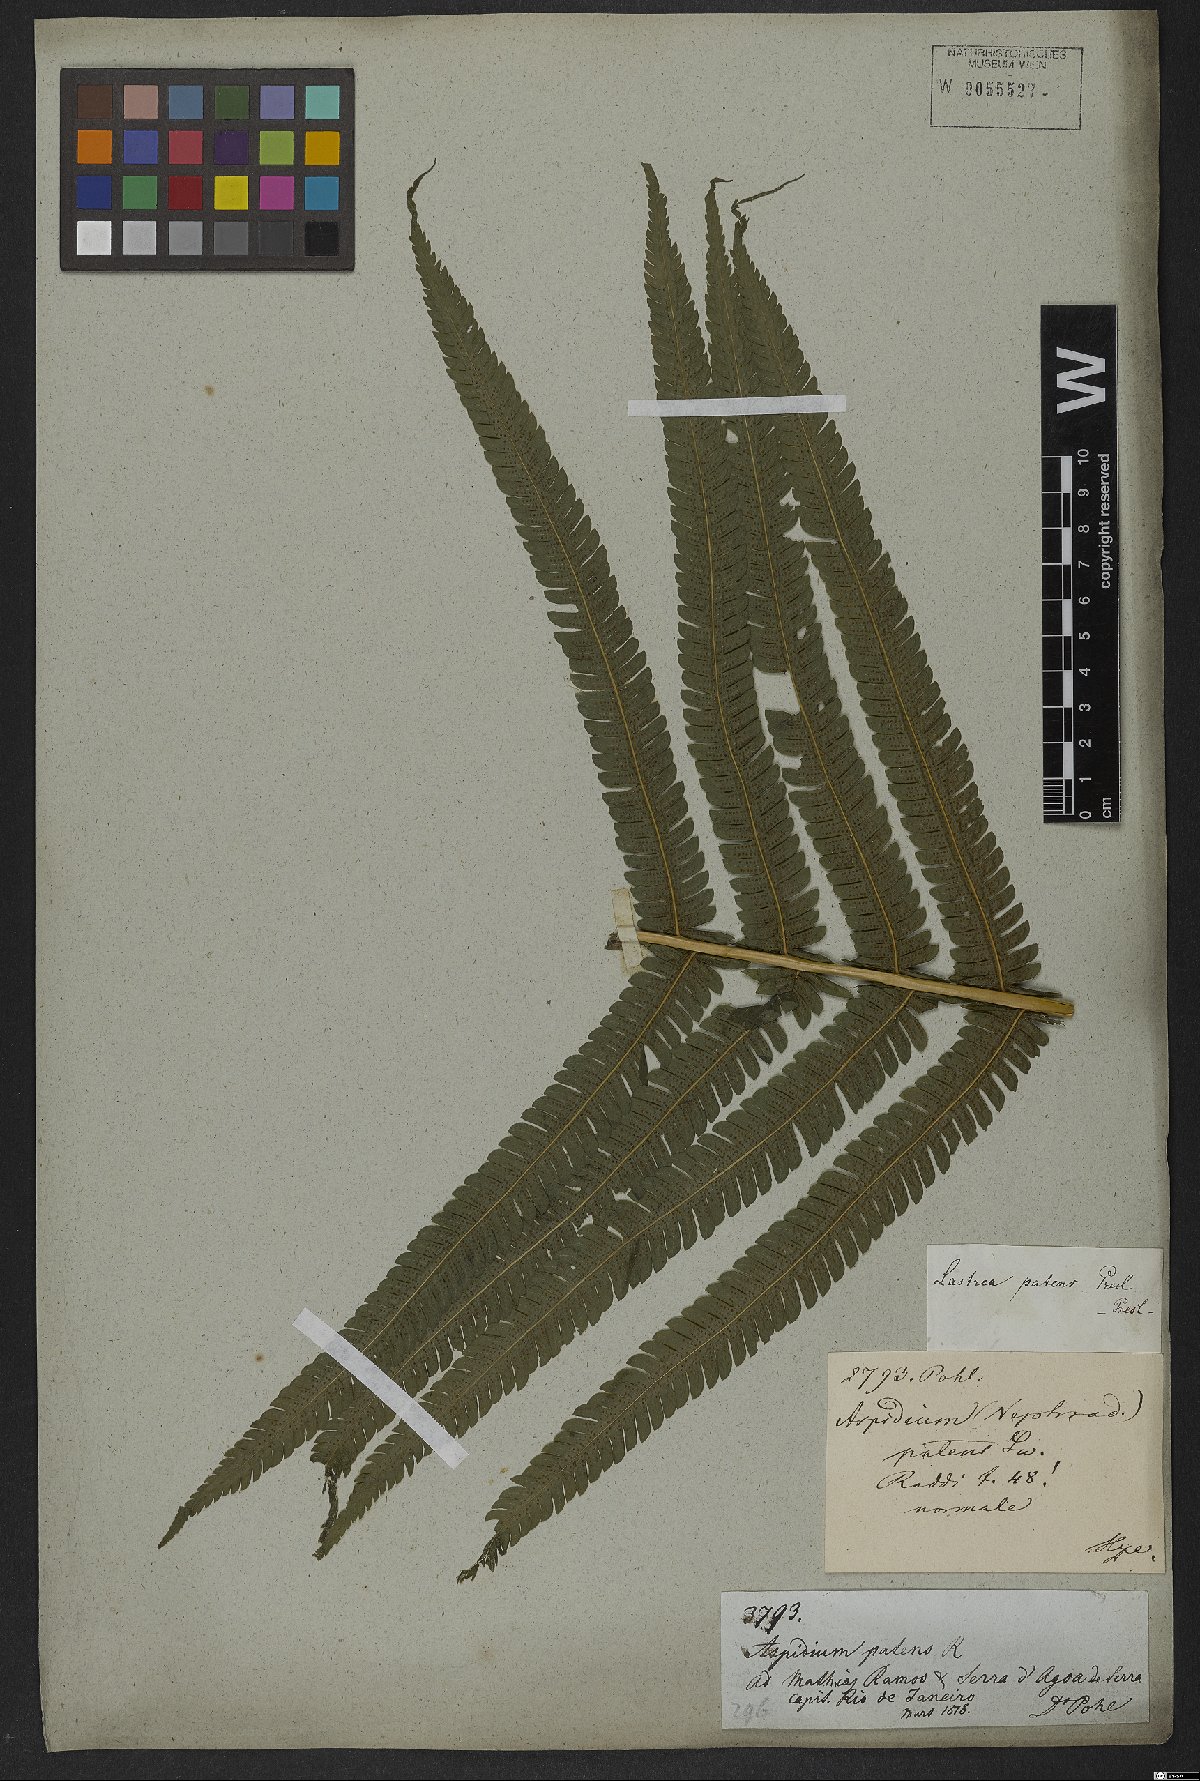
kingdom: Plantae
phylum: Tracheophyta
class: Polypodiopsida
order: Polypodiales
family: Thelypteridaceae
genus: Pelazoneuron
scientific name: Pelazoneuron patens
